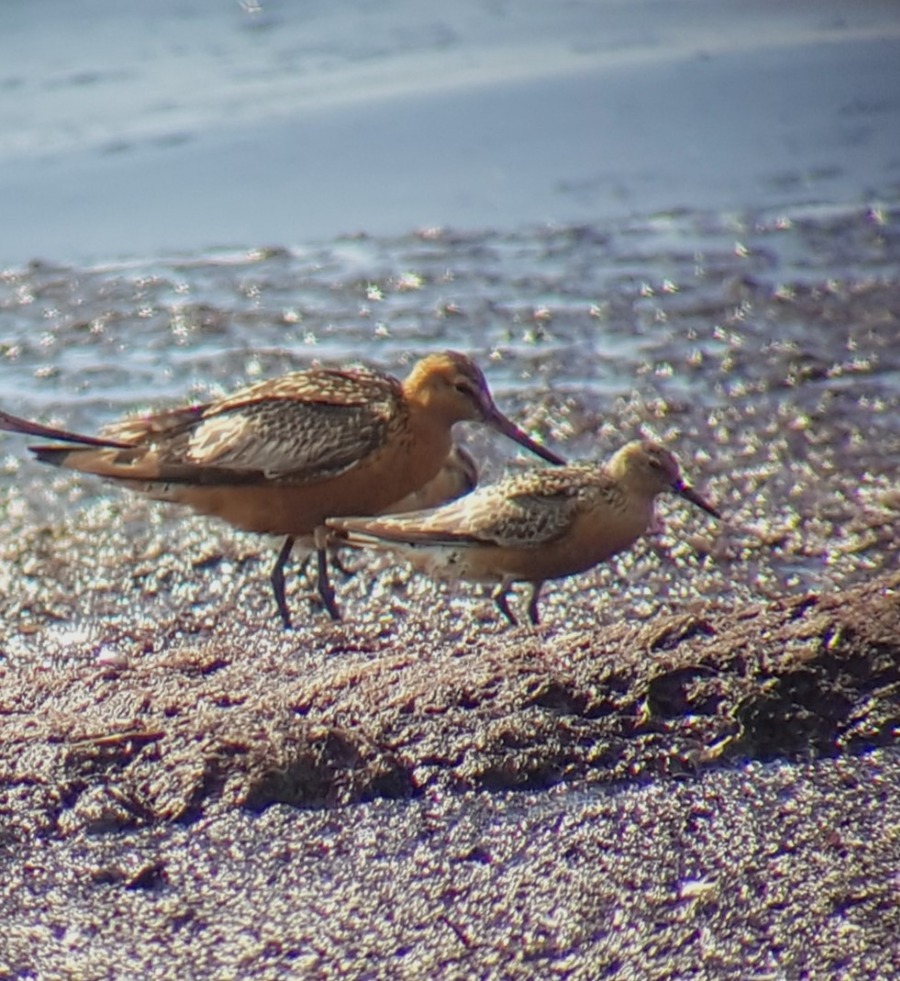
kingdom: Animalia
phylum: Chordata
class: Aves
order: Charadriiformes
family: Scolopacidae
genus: Calidris
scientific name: Calidris canutus
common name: Islandsk ryle
